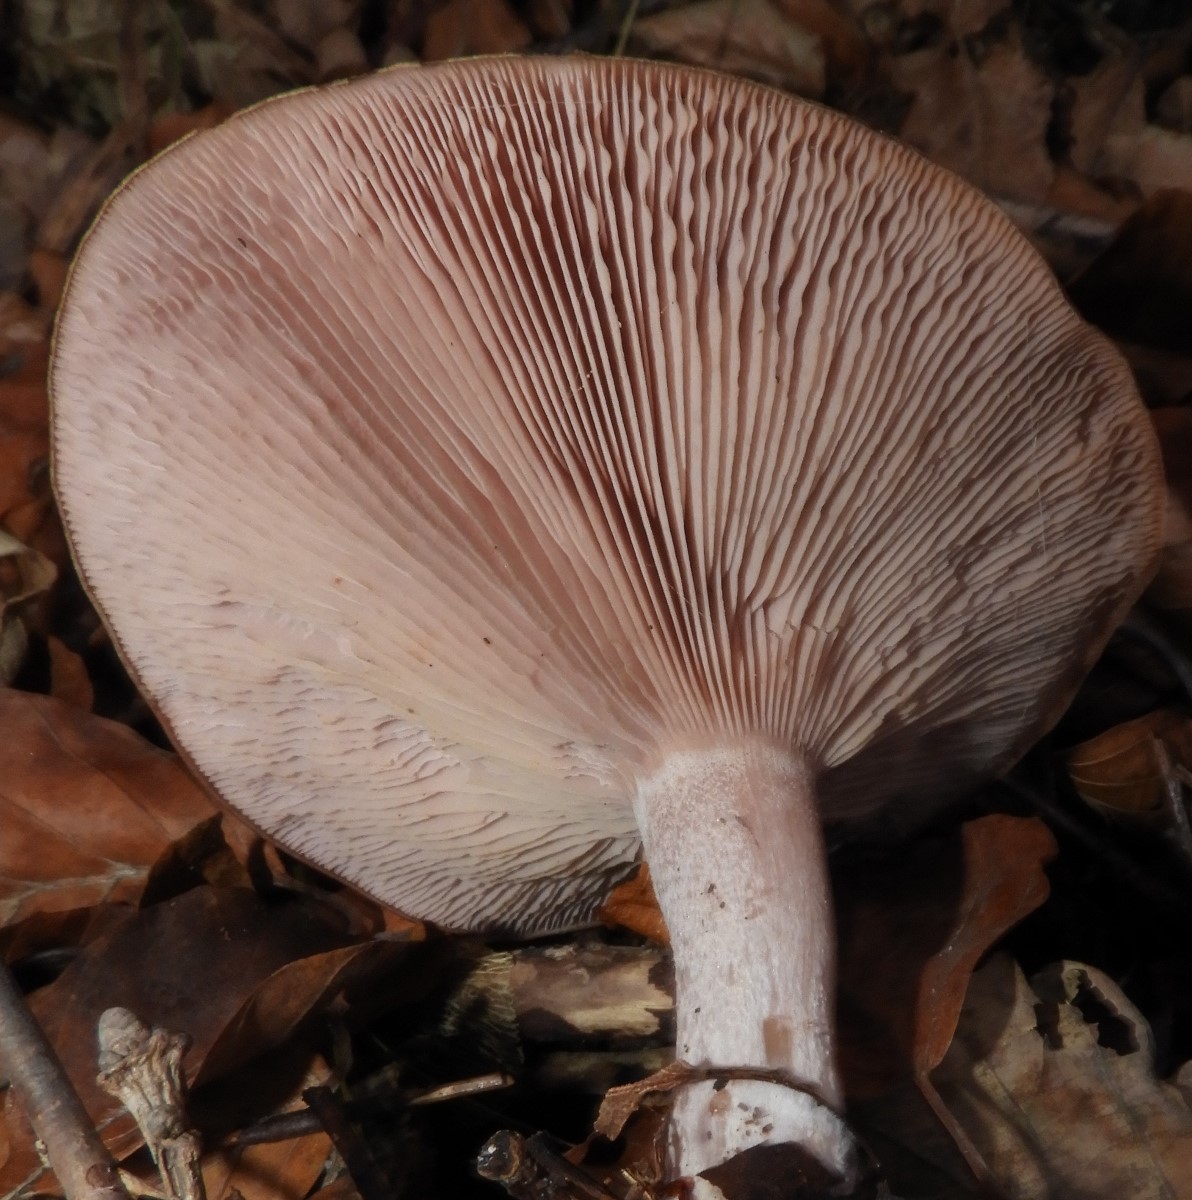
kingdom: Fungi
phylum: Basidiomycota
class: Agaricomycetes
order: Agaricales
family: Tricholomataceae
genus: Lepista
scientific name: Lepista nuda
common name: violet hekseringshat
